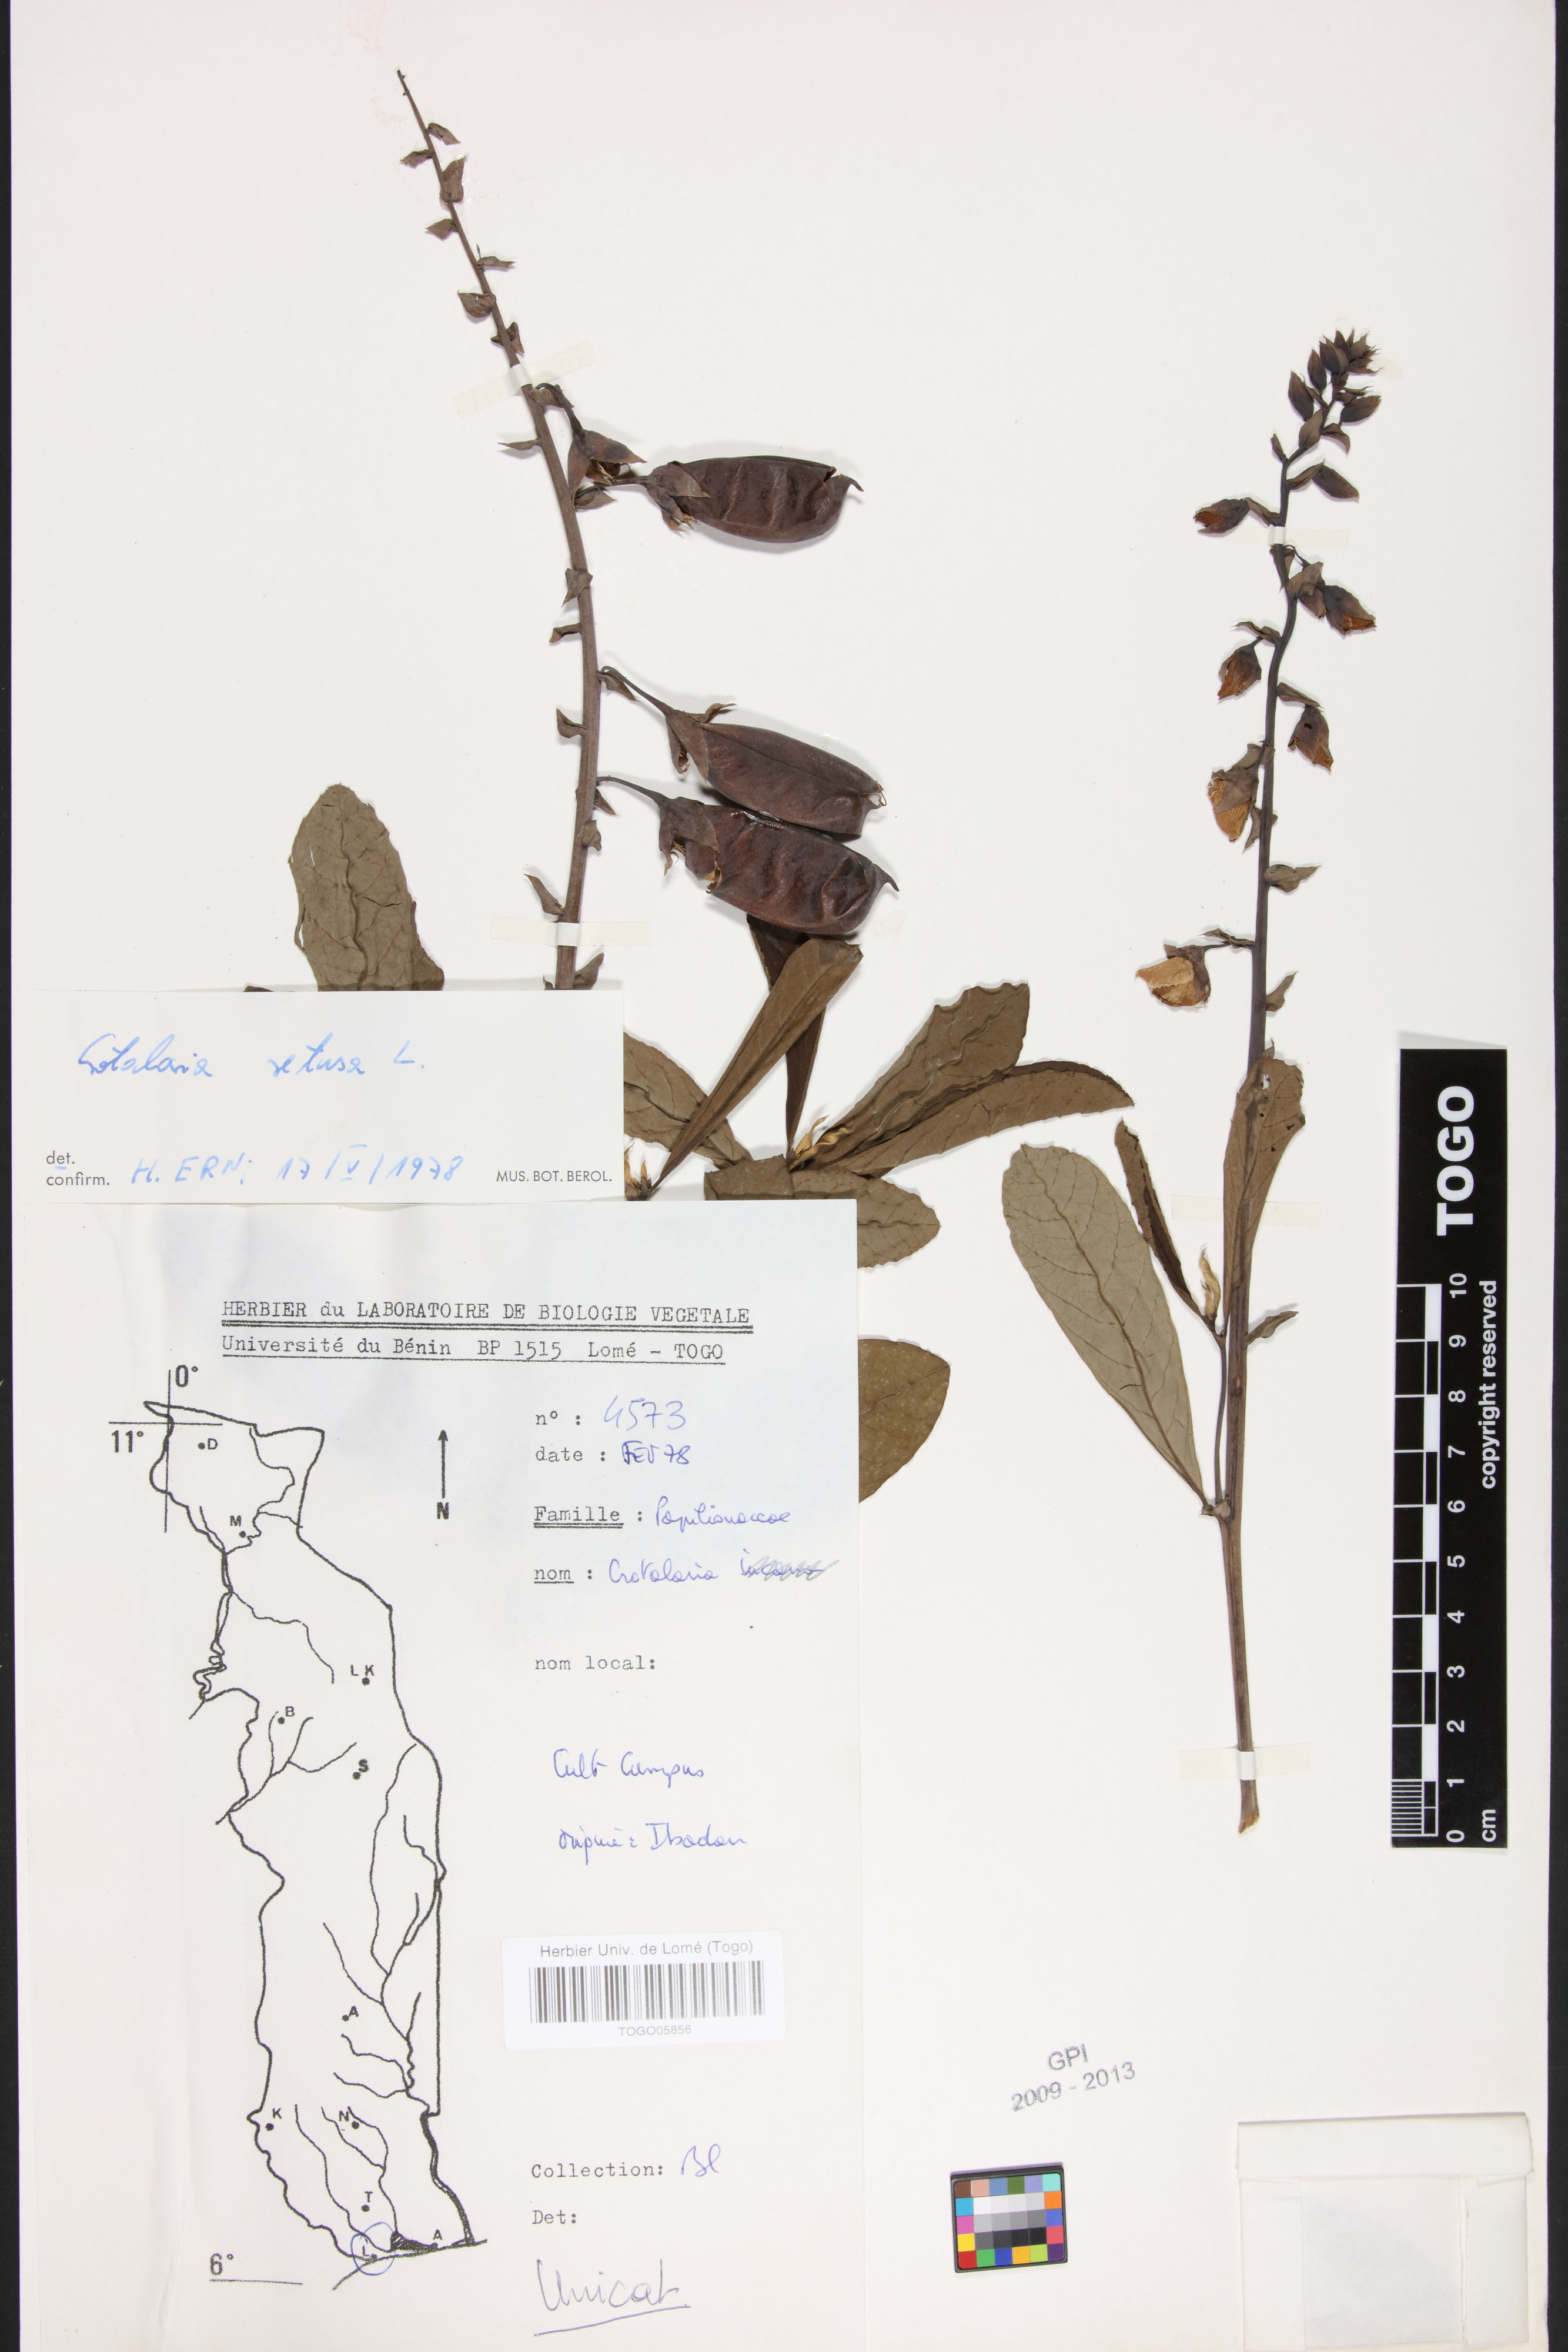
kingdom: Plantae
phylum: Tracheophyta
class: Magnoliopsida
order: Fabales
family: Fabaceae
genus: Crotalaria
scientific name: Crotalaria retusa
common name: Rattleweed
